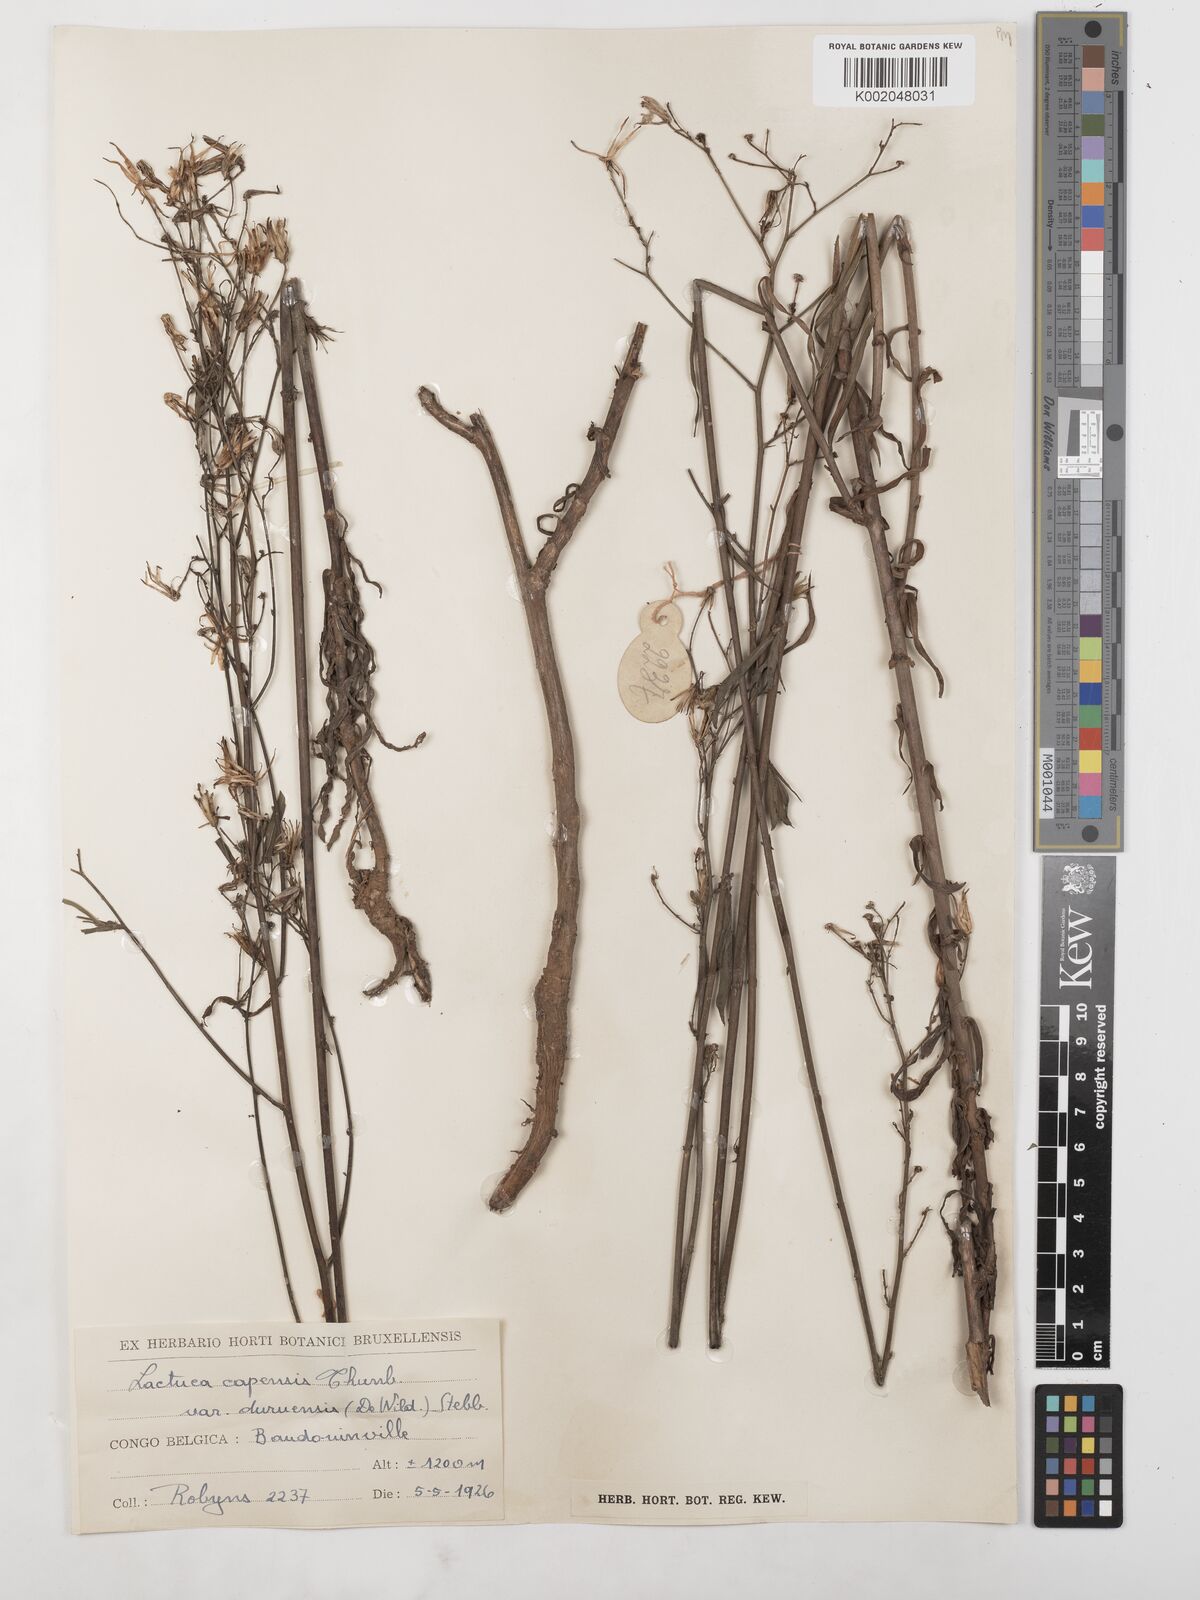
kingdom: Plantae
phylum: Tracheophyta
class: Magnoliopsida
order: Asterales
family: Asteraceae
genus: Lactuca
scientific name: Lactuca inermis
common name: Wild lettuce
